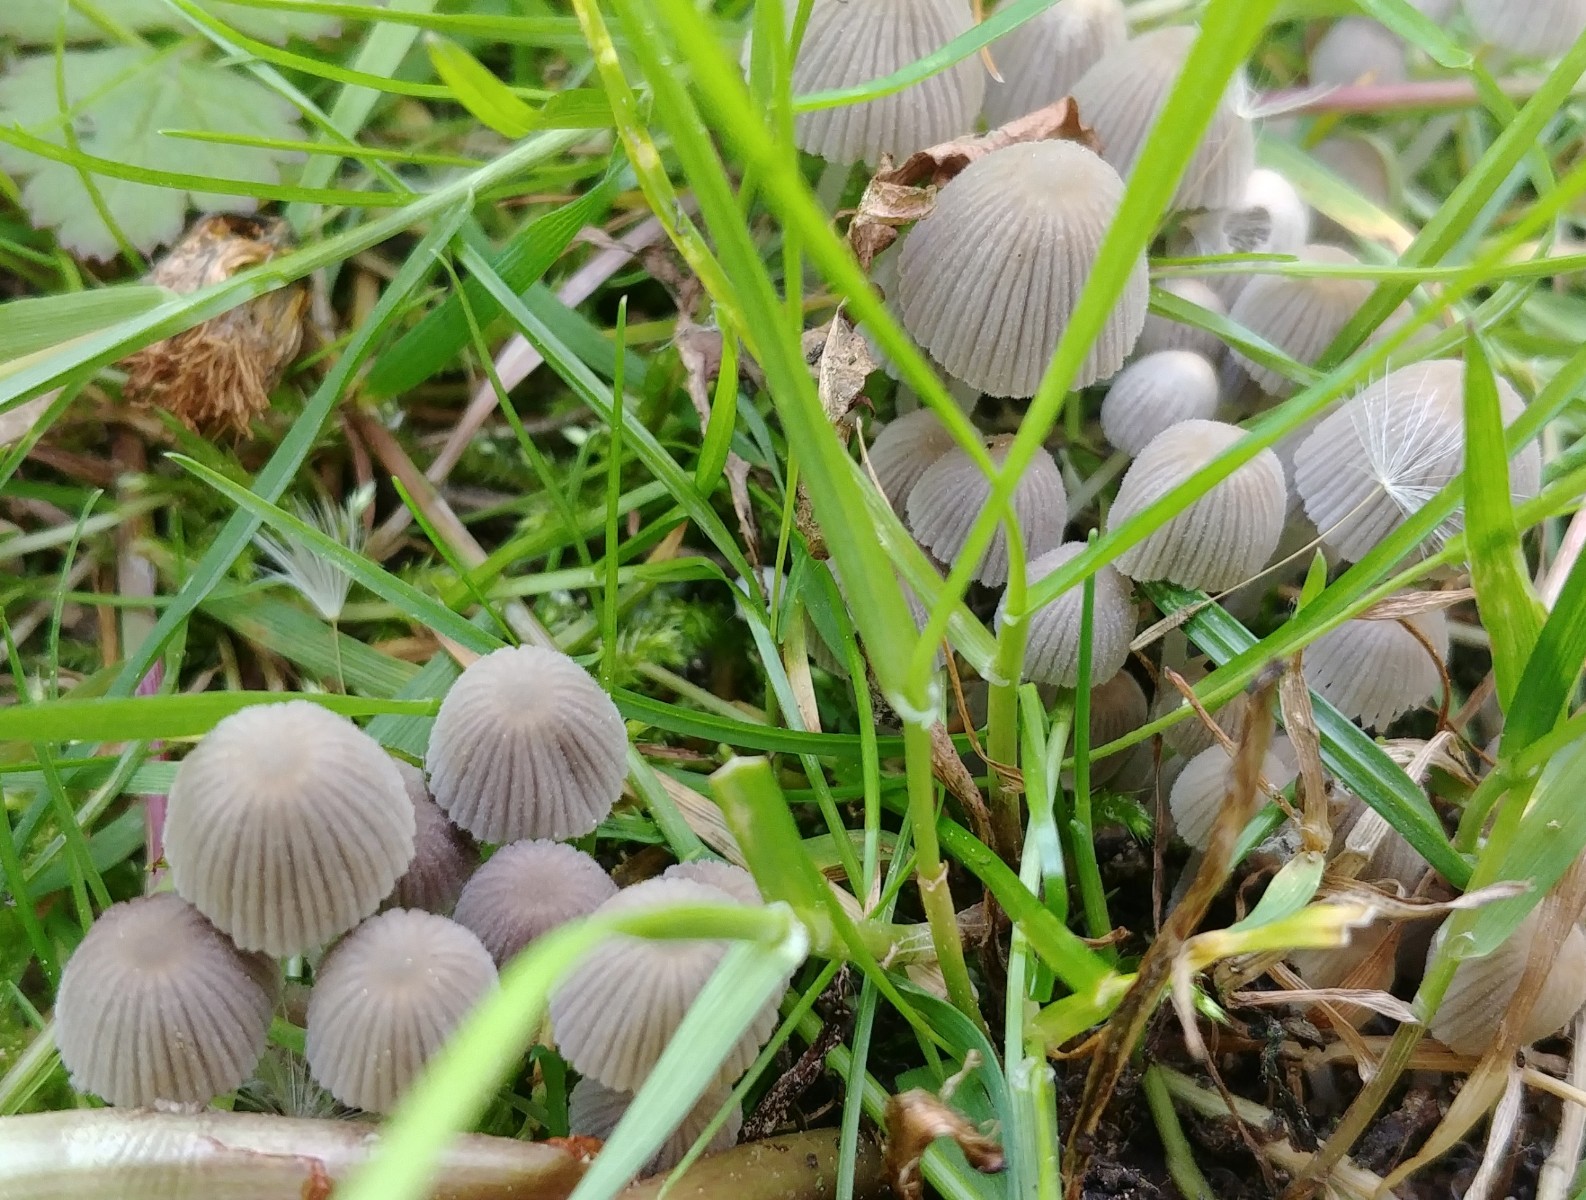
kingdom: Fungi
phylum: Basidiomycota
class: Agaricomycetes
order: Agaricales
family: Psathyrellaceae
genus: Coprinellus
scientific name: Coprinellus disseminatus
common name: bredsået blækhat
